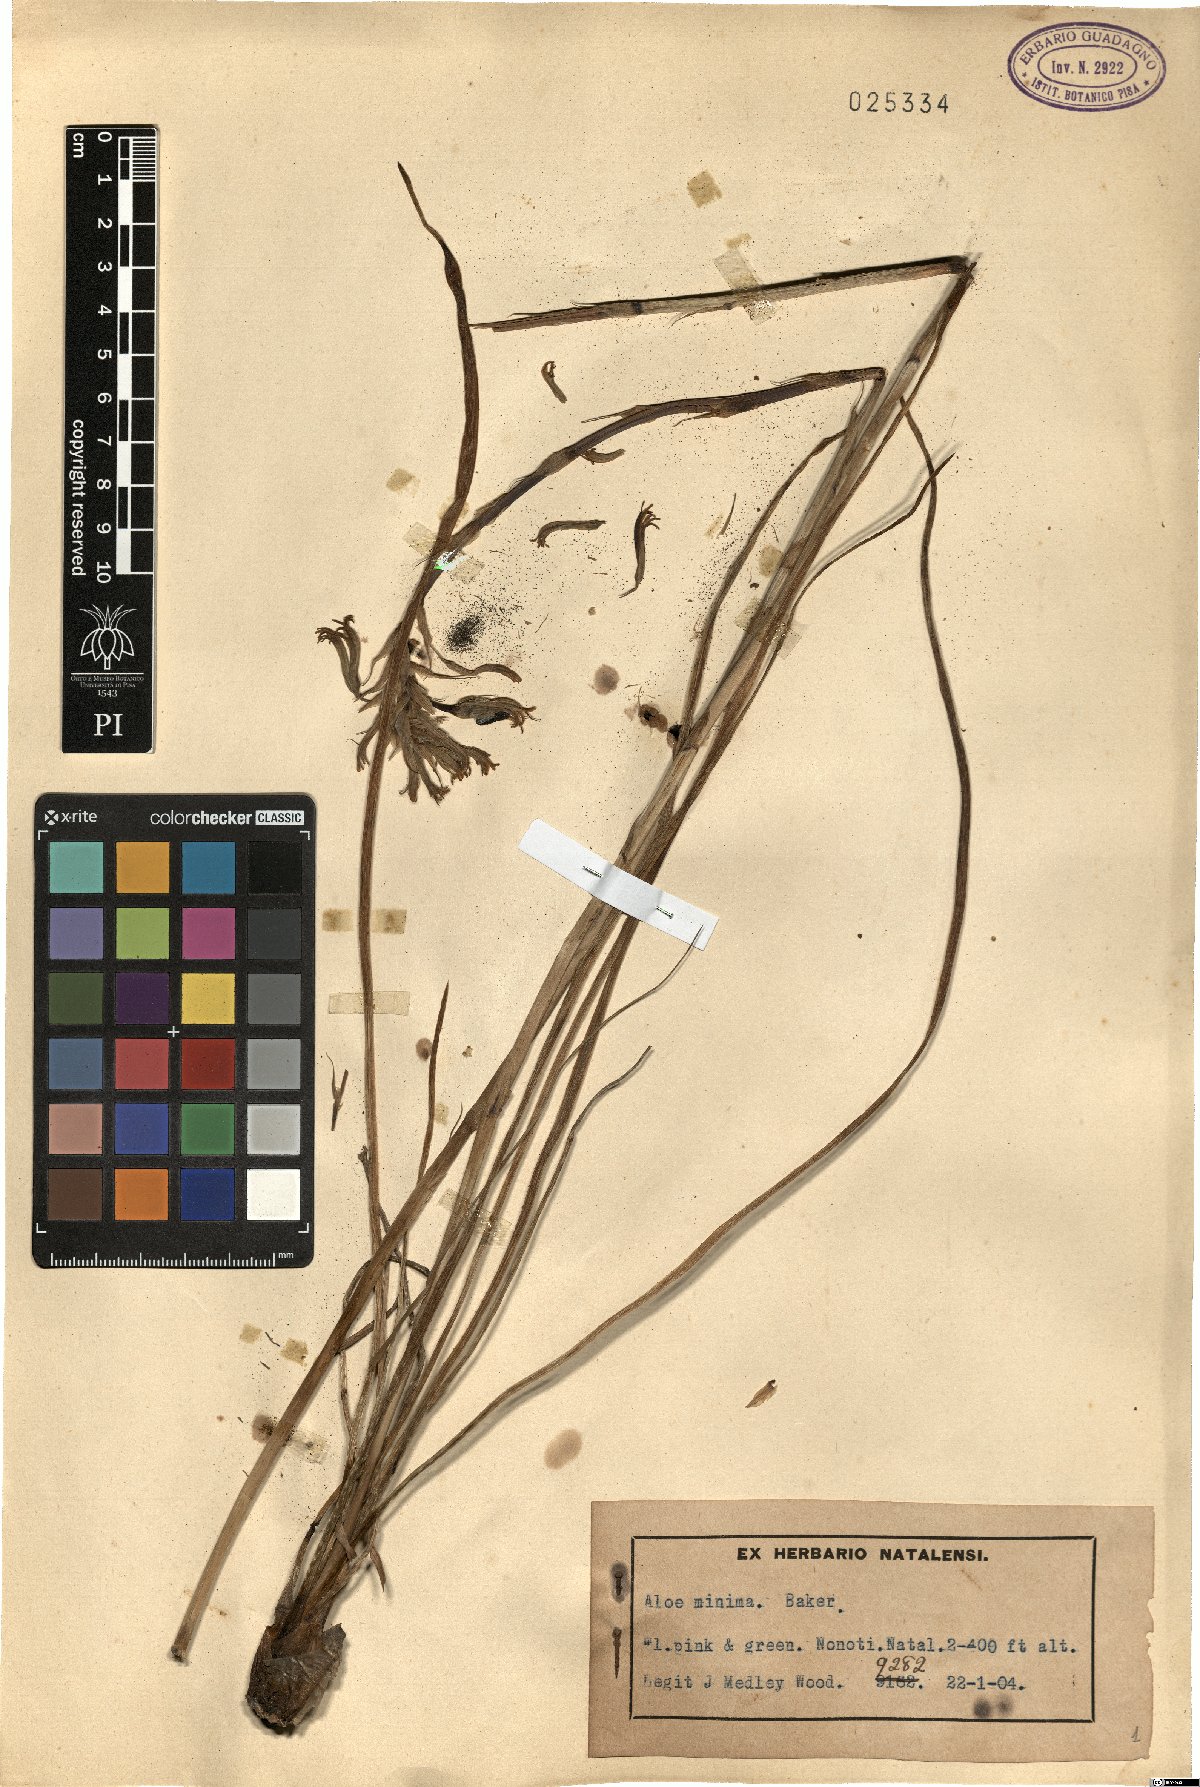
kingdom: Plantae
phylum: Tracheophyta
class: Liliopsida
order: Asparagales
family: Asphodelaceae
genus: Aloe
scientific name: Aloe minima
